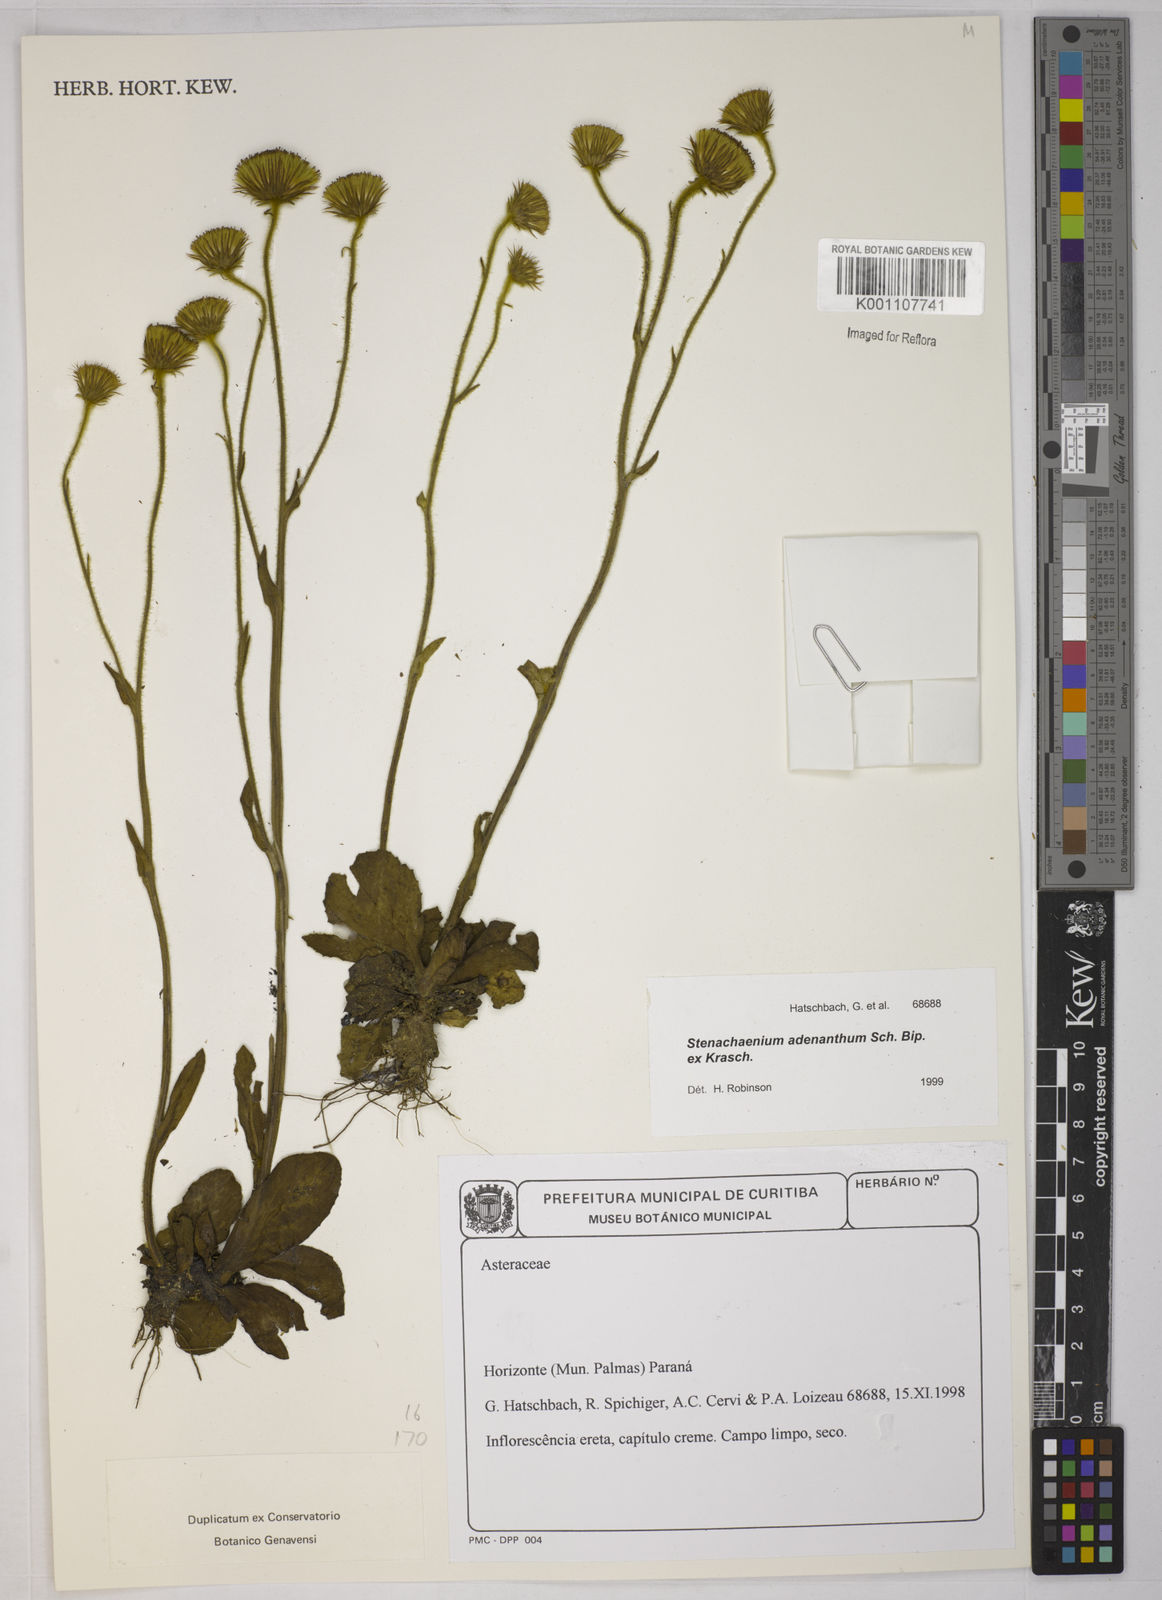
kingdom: Plantae
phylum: Tracheophyta
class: Magnoliopsida
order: Asterales
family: Asteraceae
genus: Stenachaenium
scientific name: Stenachaenium adenanthum
